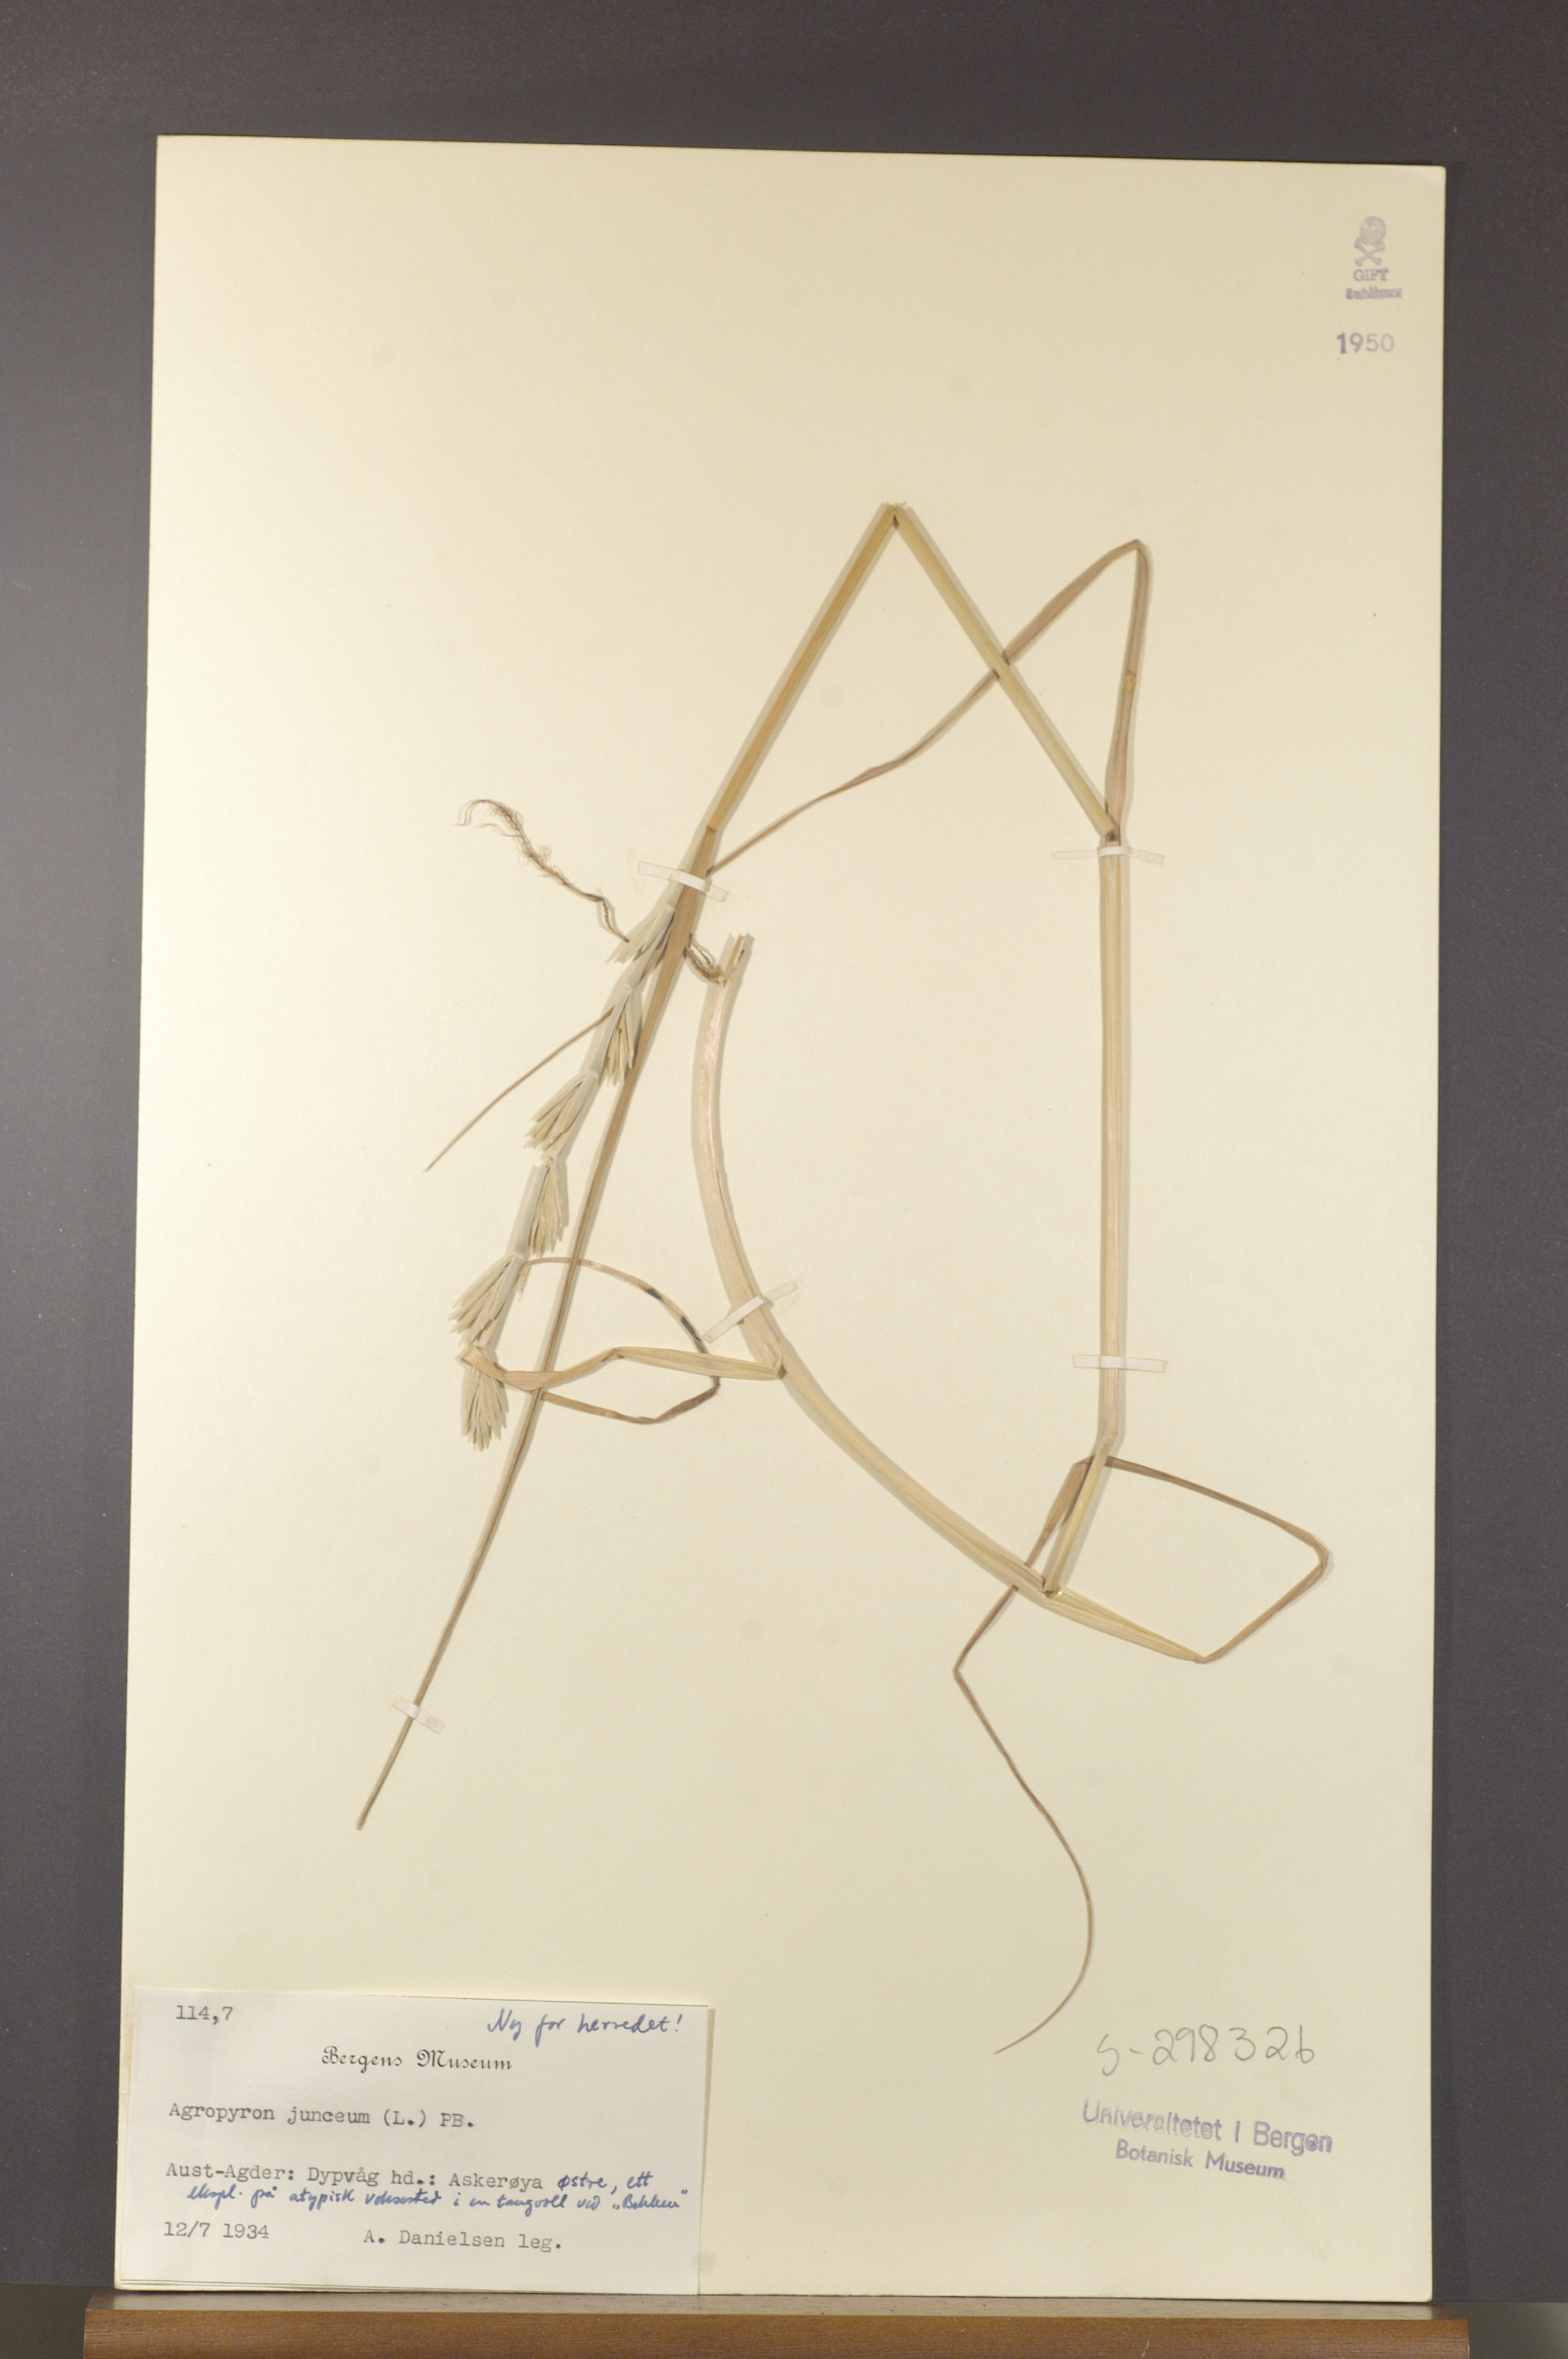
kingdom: Plantae
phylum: Tracheophyta
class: Liliopsida
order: Poales
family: Poaceae
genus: Thinopyrum
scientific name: Thinopyrum junceum
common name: Russian wheatgrass
